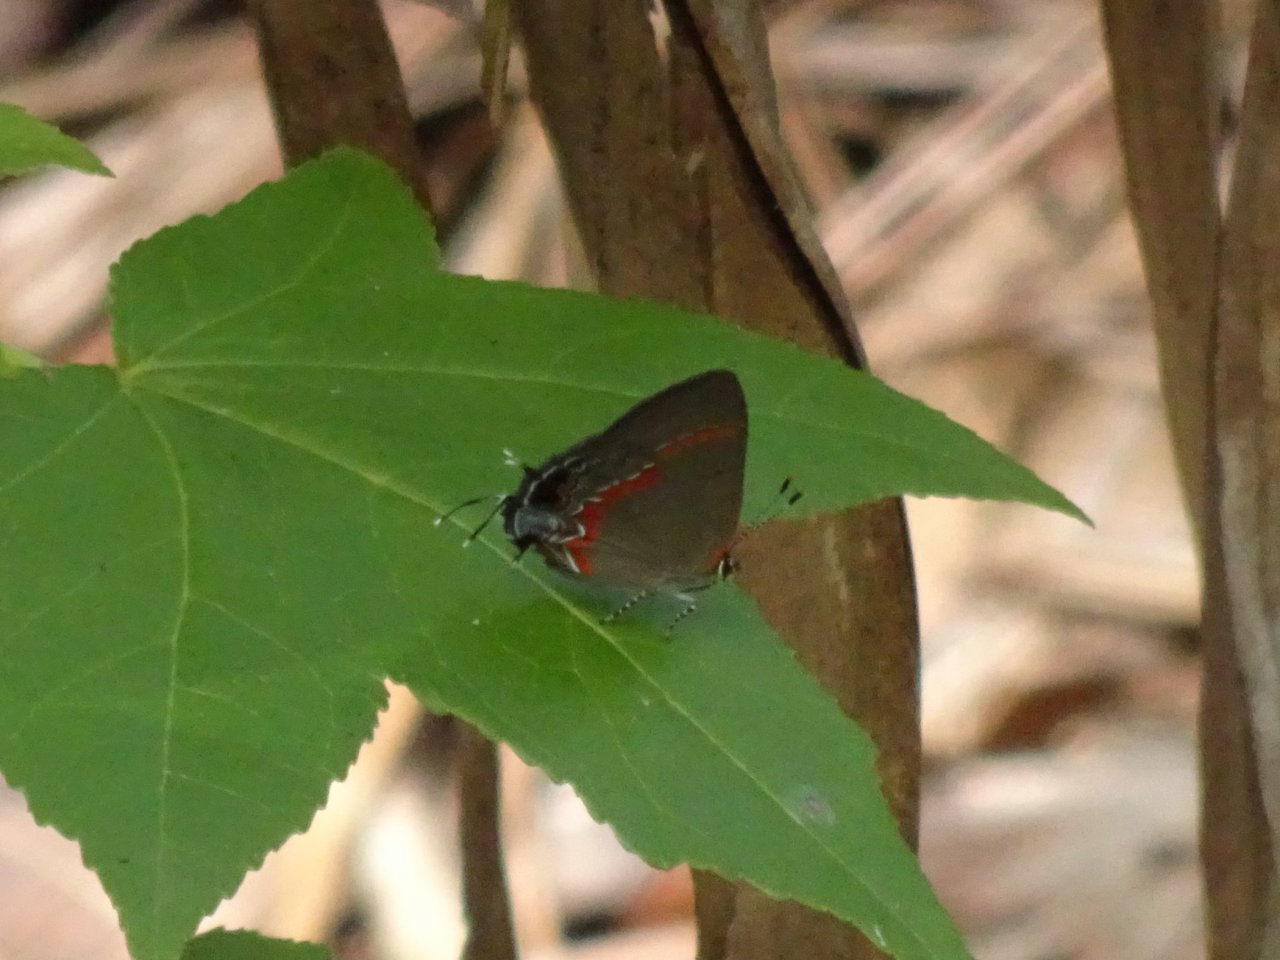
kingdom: Animalia
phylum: Arthropoda
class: Insecta
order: Lepidoptera
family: Lycaenidae
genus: Calycopis
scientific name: Calycopis cecrops
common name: Red-banded Hairstreak
